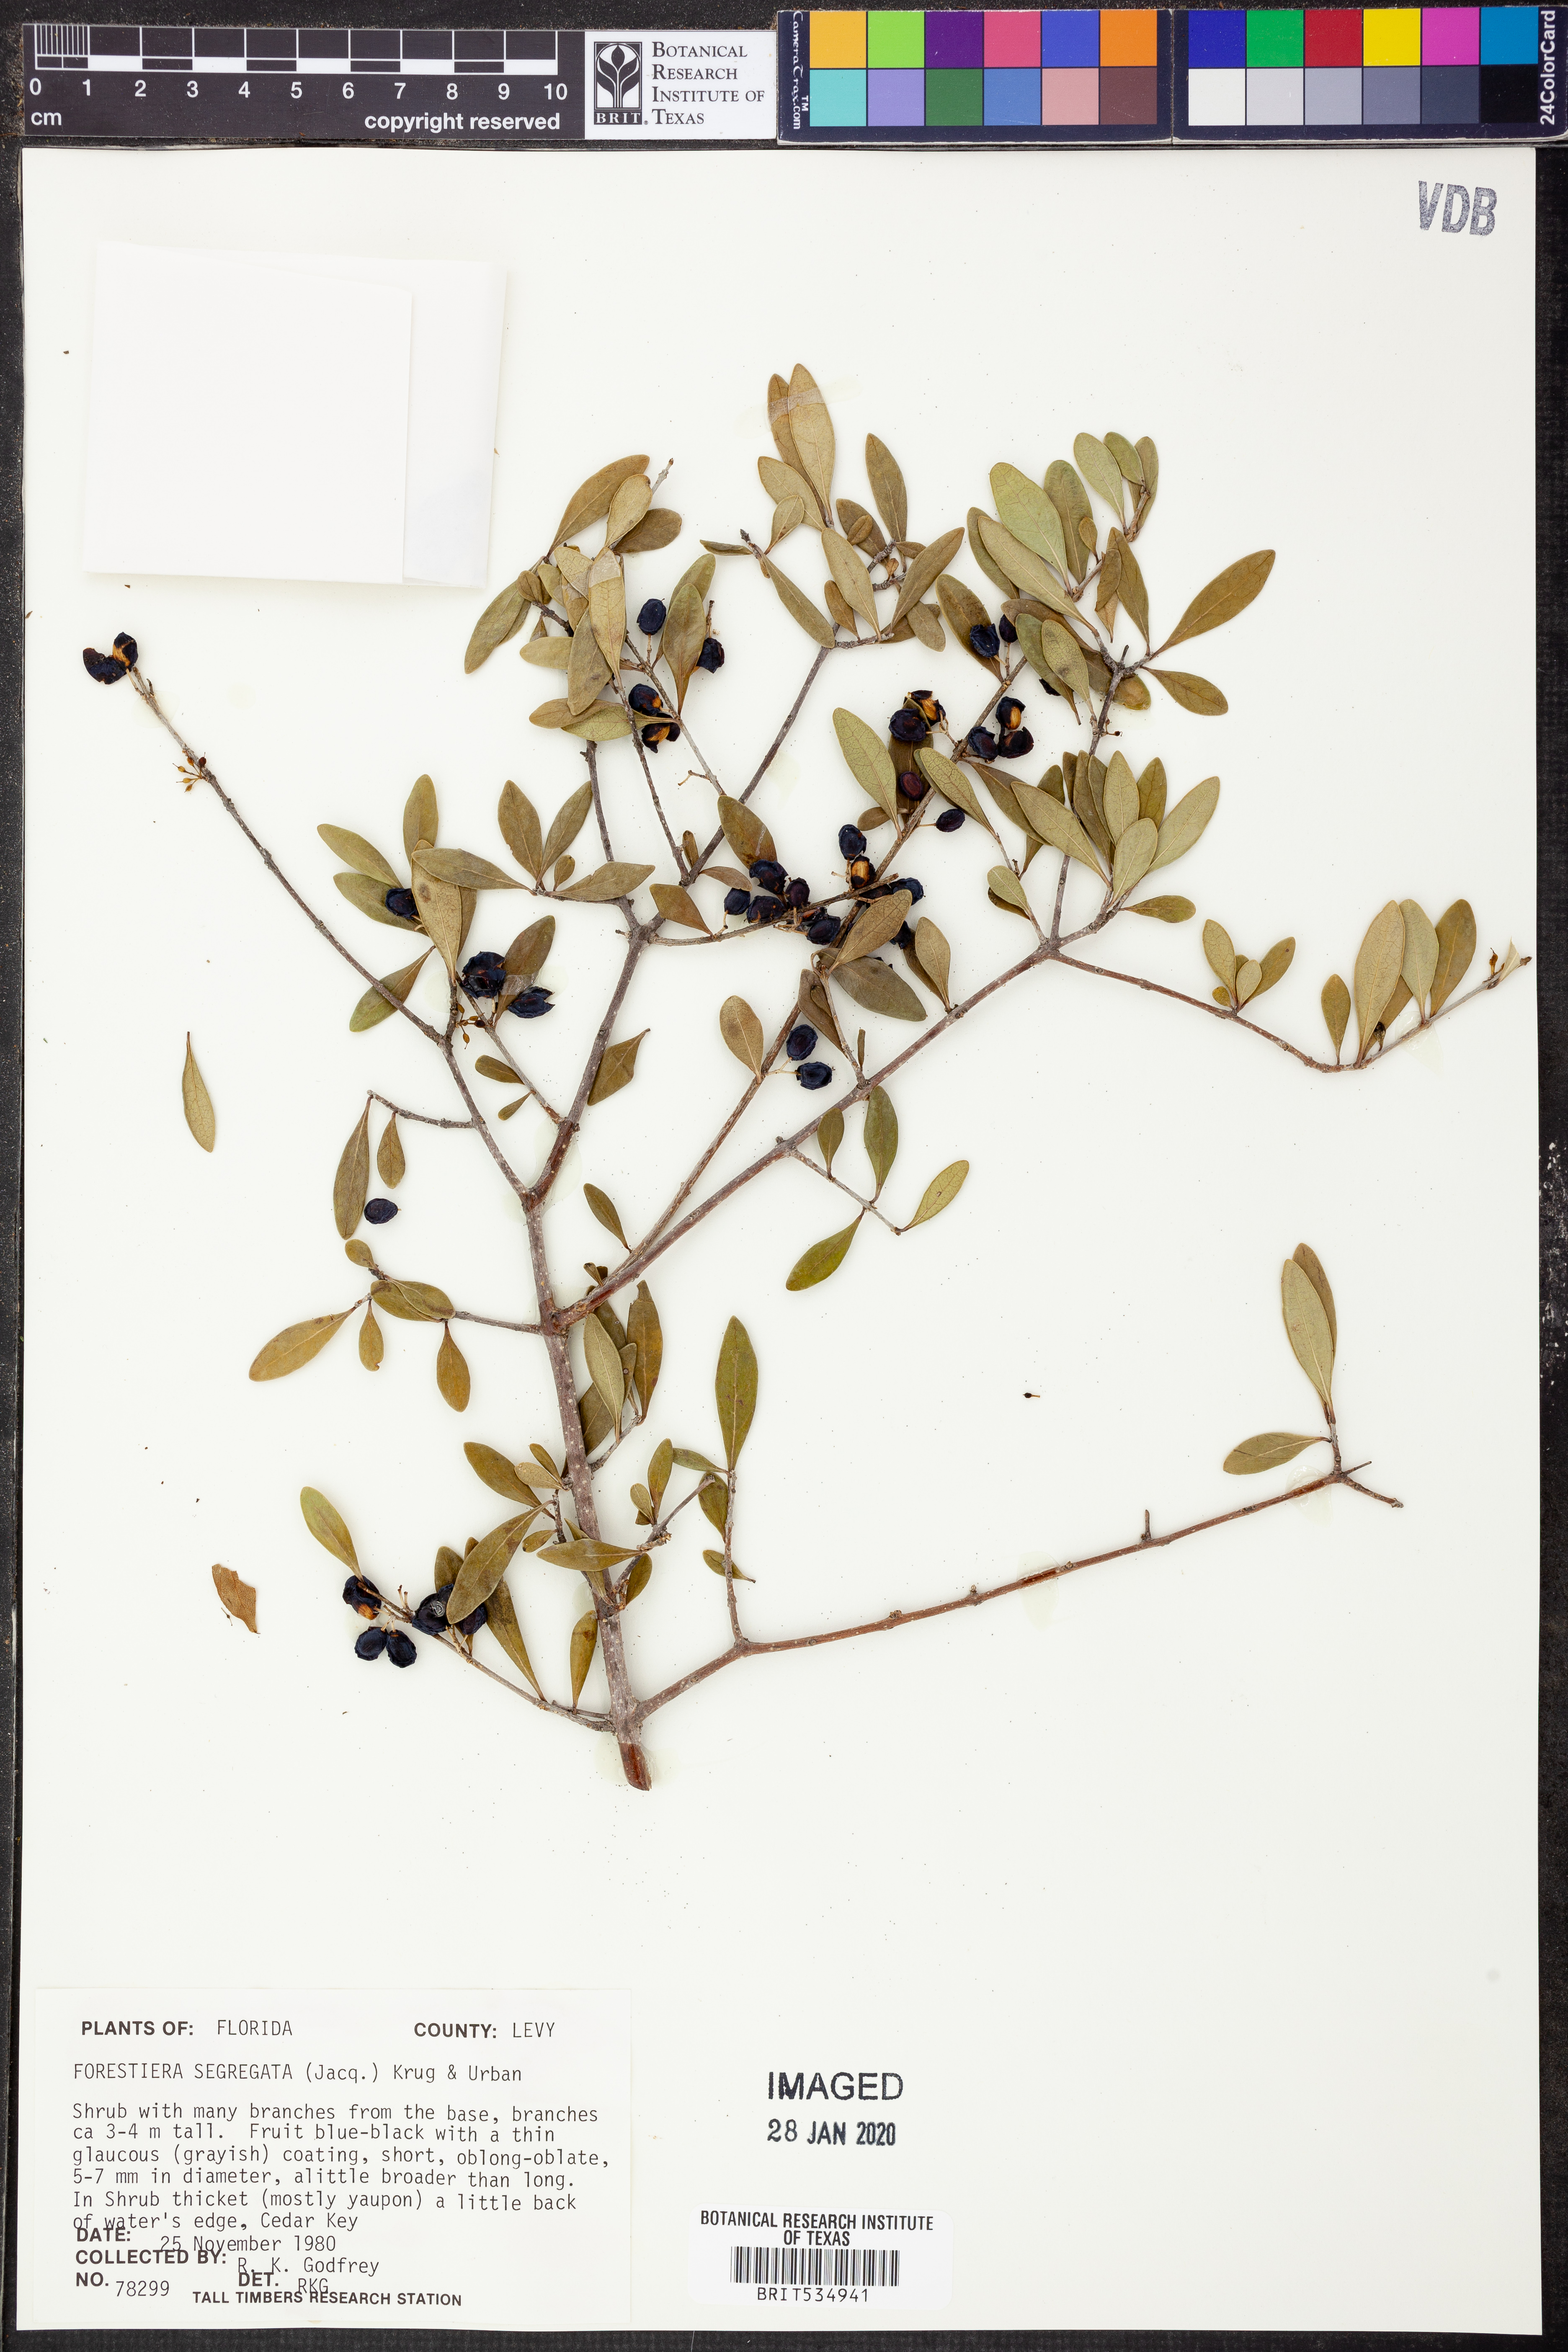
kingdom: Plantae
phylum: Tracheophyta
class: Magnoliopsida
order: Lamiales
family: Oleaceae
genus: Forestiera
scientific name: Forestiera segregata
